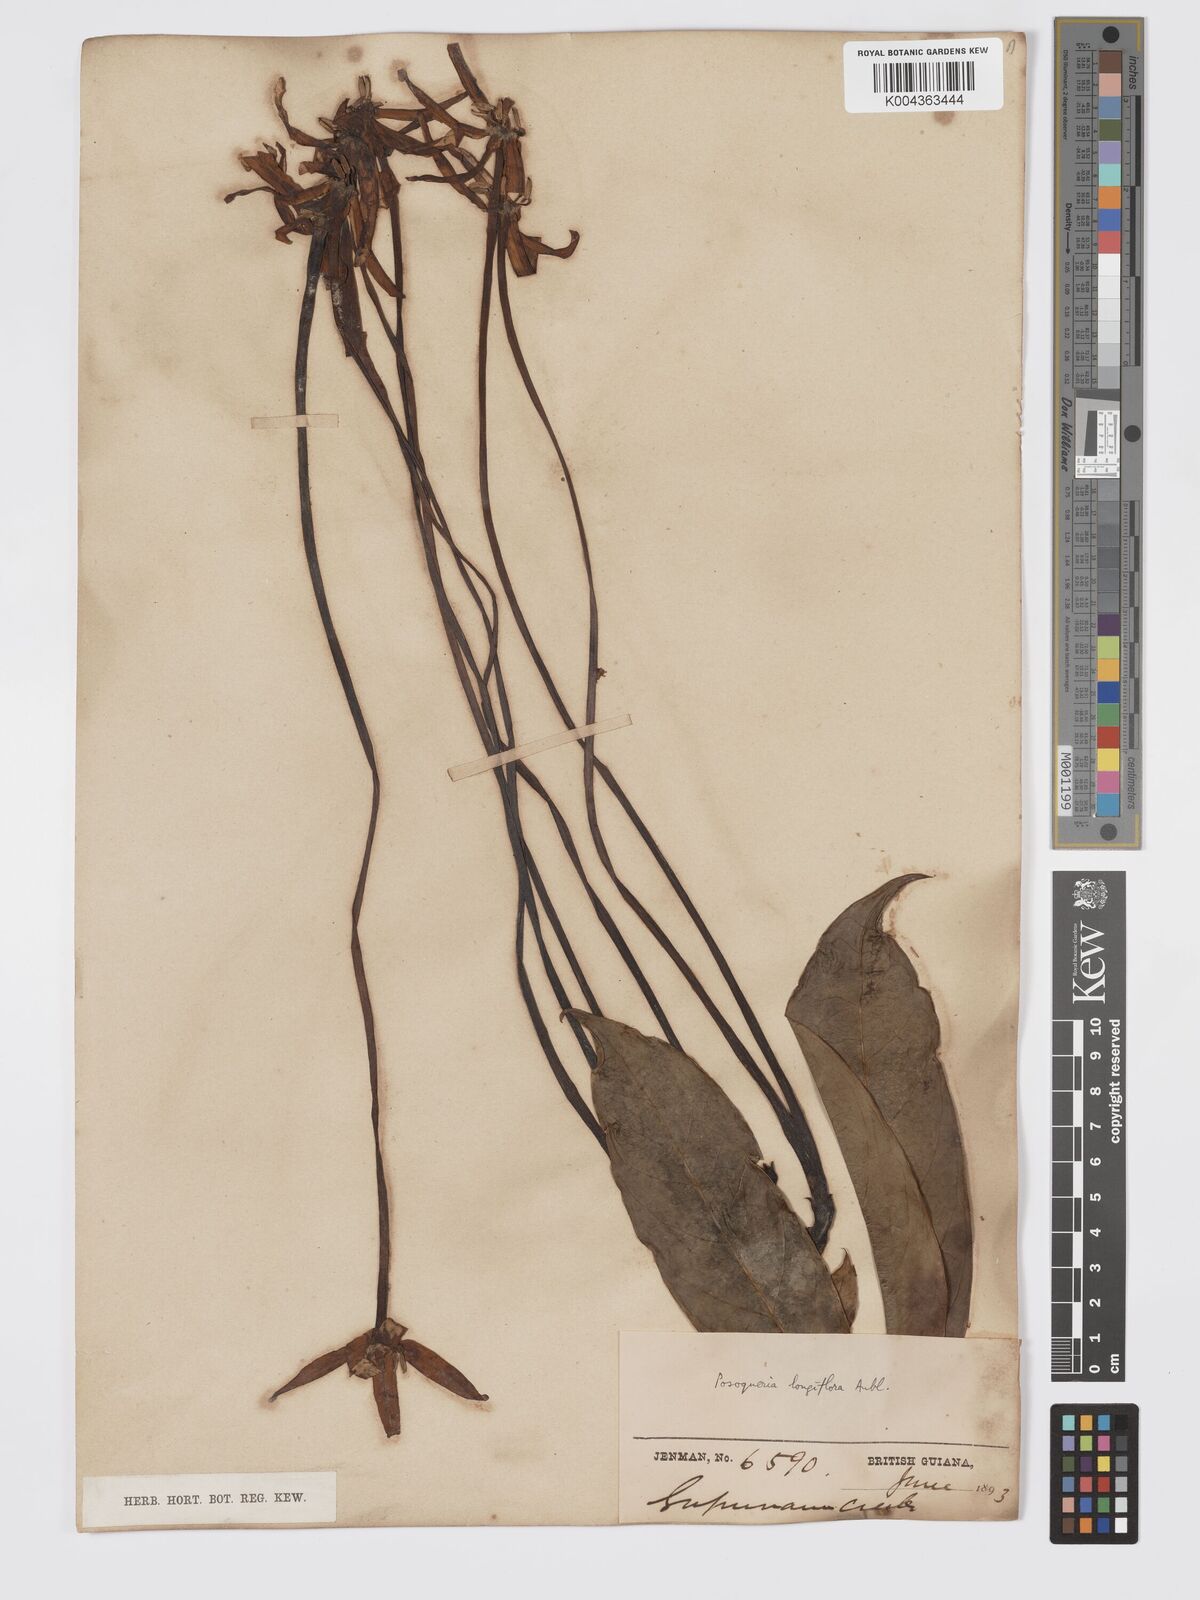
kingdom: Plantae
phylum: Tracheophyta
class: Magnoliopsida
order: Gentianales
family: Rubiaceae
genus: Posoqueria
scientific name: Posoqueria
